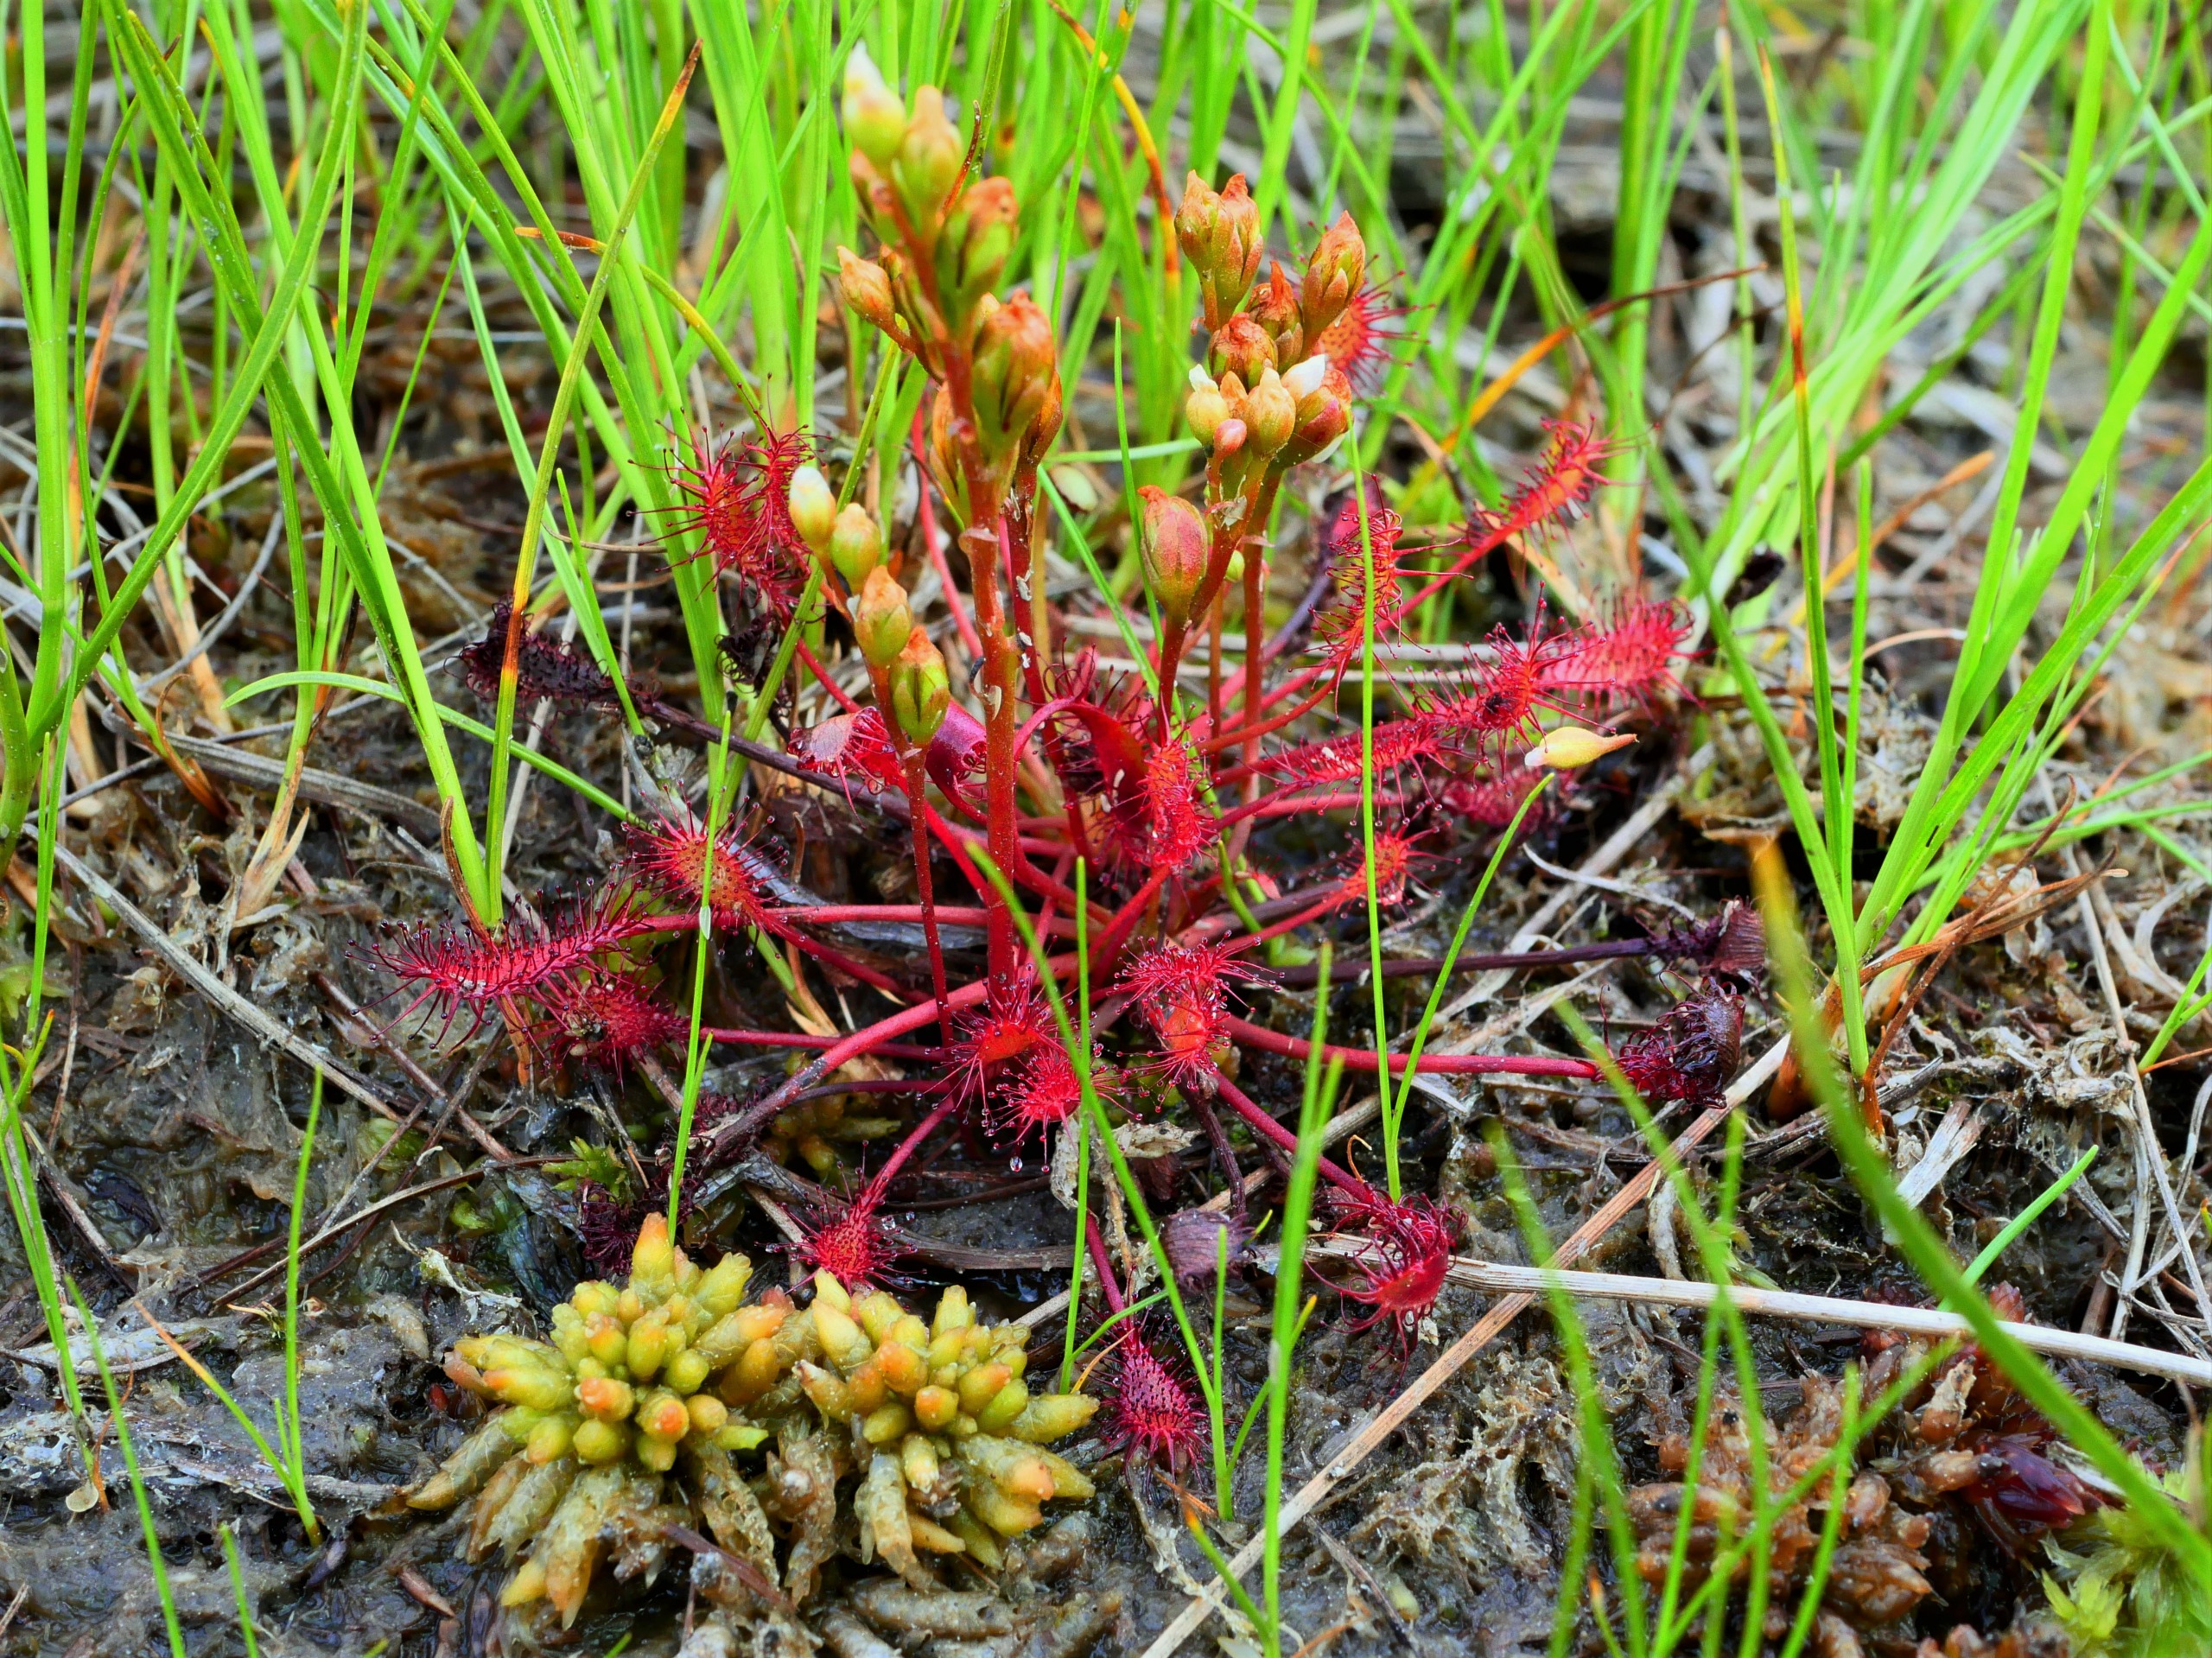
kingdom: Plantae
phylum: Tracheophyta
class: Magnoliopsida
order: Caryophyllales
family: Droseraceae
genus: Drosera
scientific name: Drosera intermedia
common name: Liden soldug
